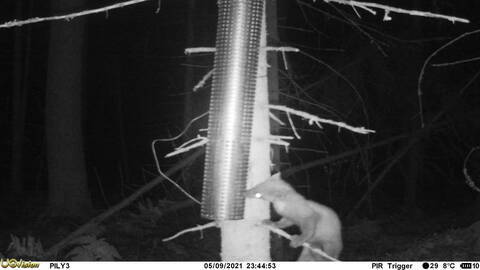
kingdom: Animalia
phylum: Chordata
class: Mammalia
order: Carnivora
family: Mustelidae
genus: Martes
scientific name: Martes martes
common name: European pine marten
